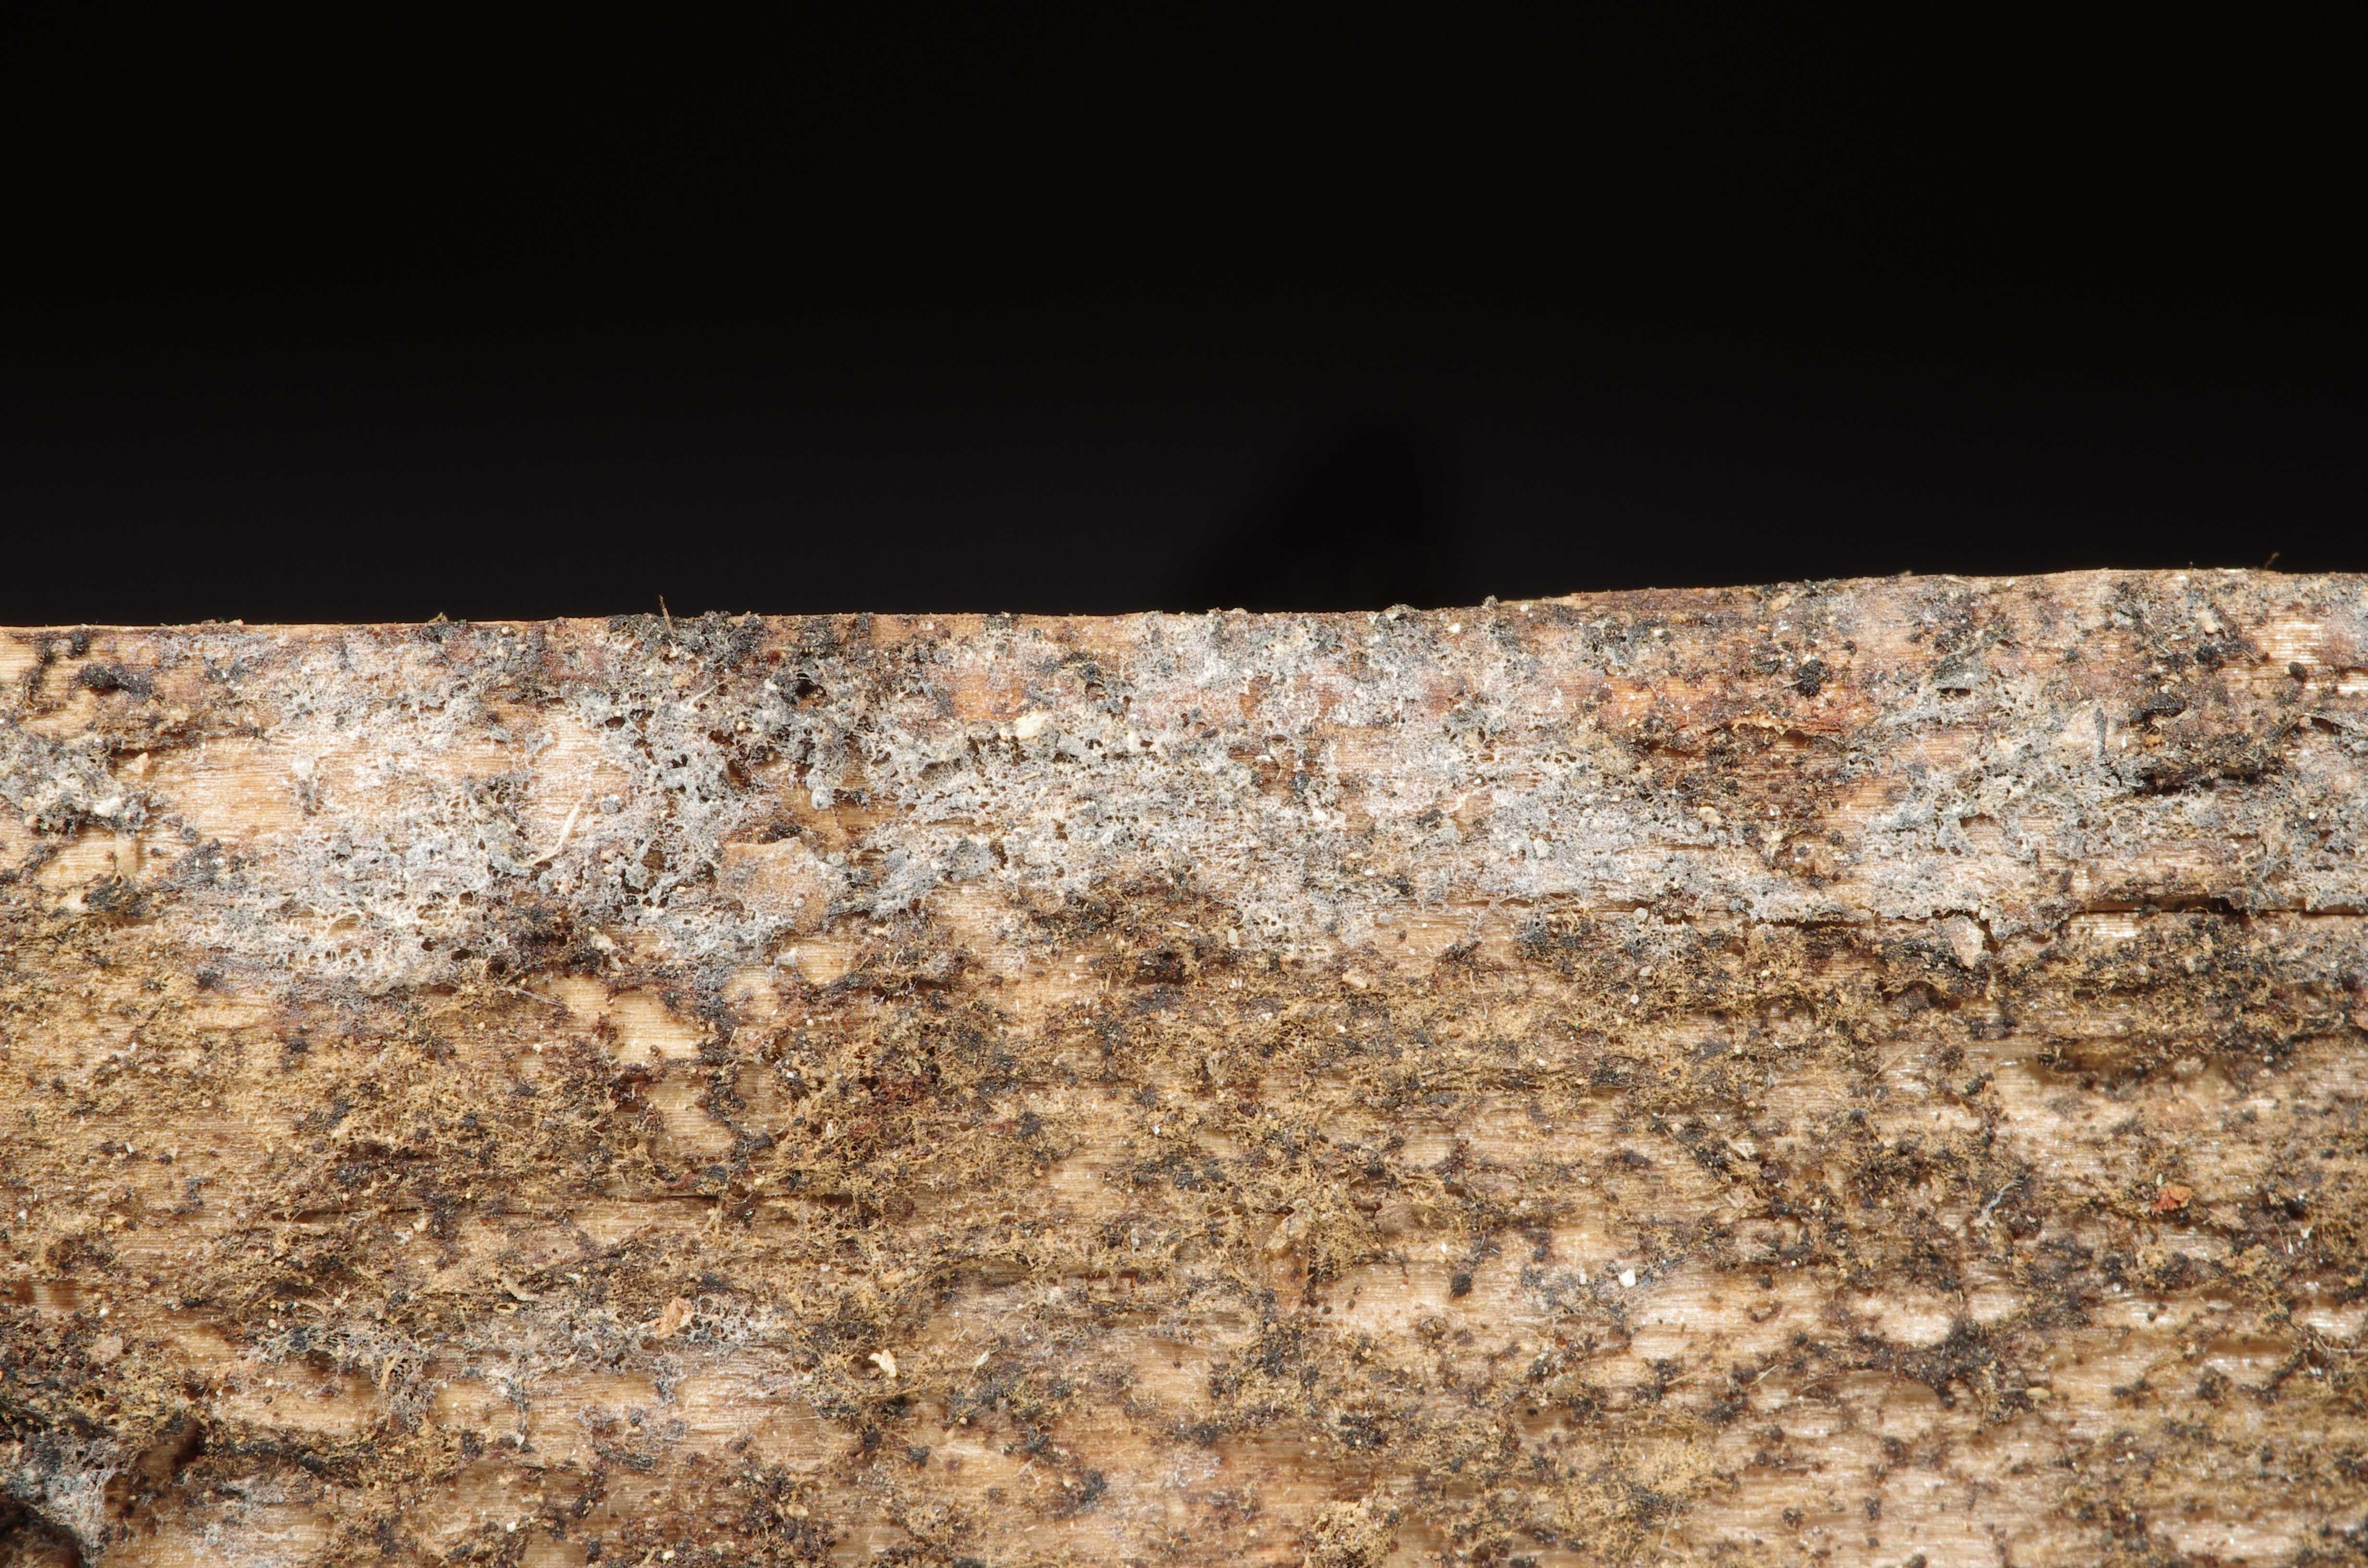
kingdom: Fungi
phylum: Basidiomycota
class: Agaricomycetes
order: Russulales
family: Xenasmataceae
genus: Xenasma
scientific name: Xenasma tulasnelloideum
